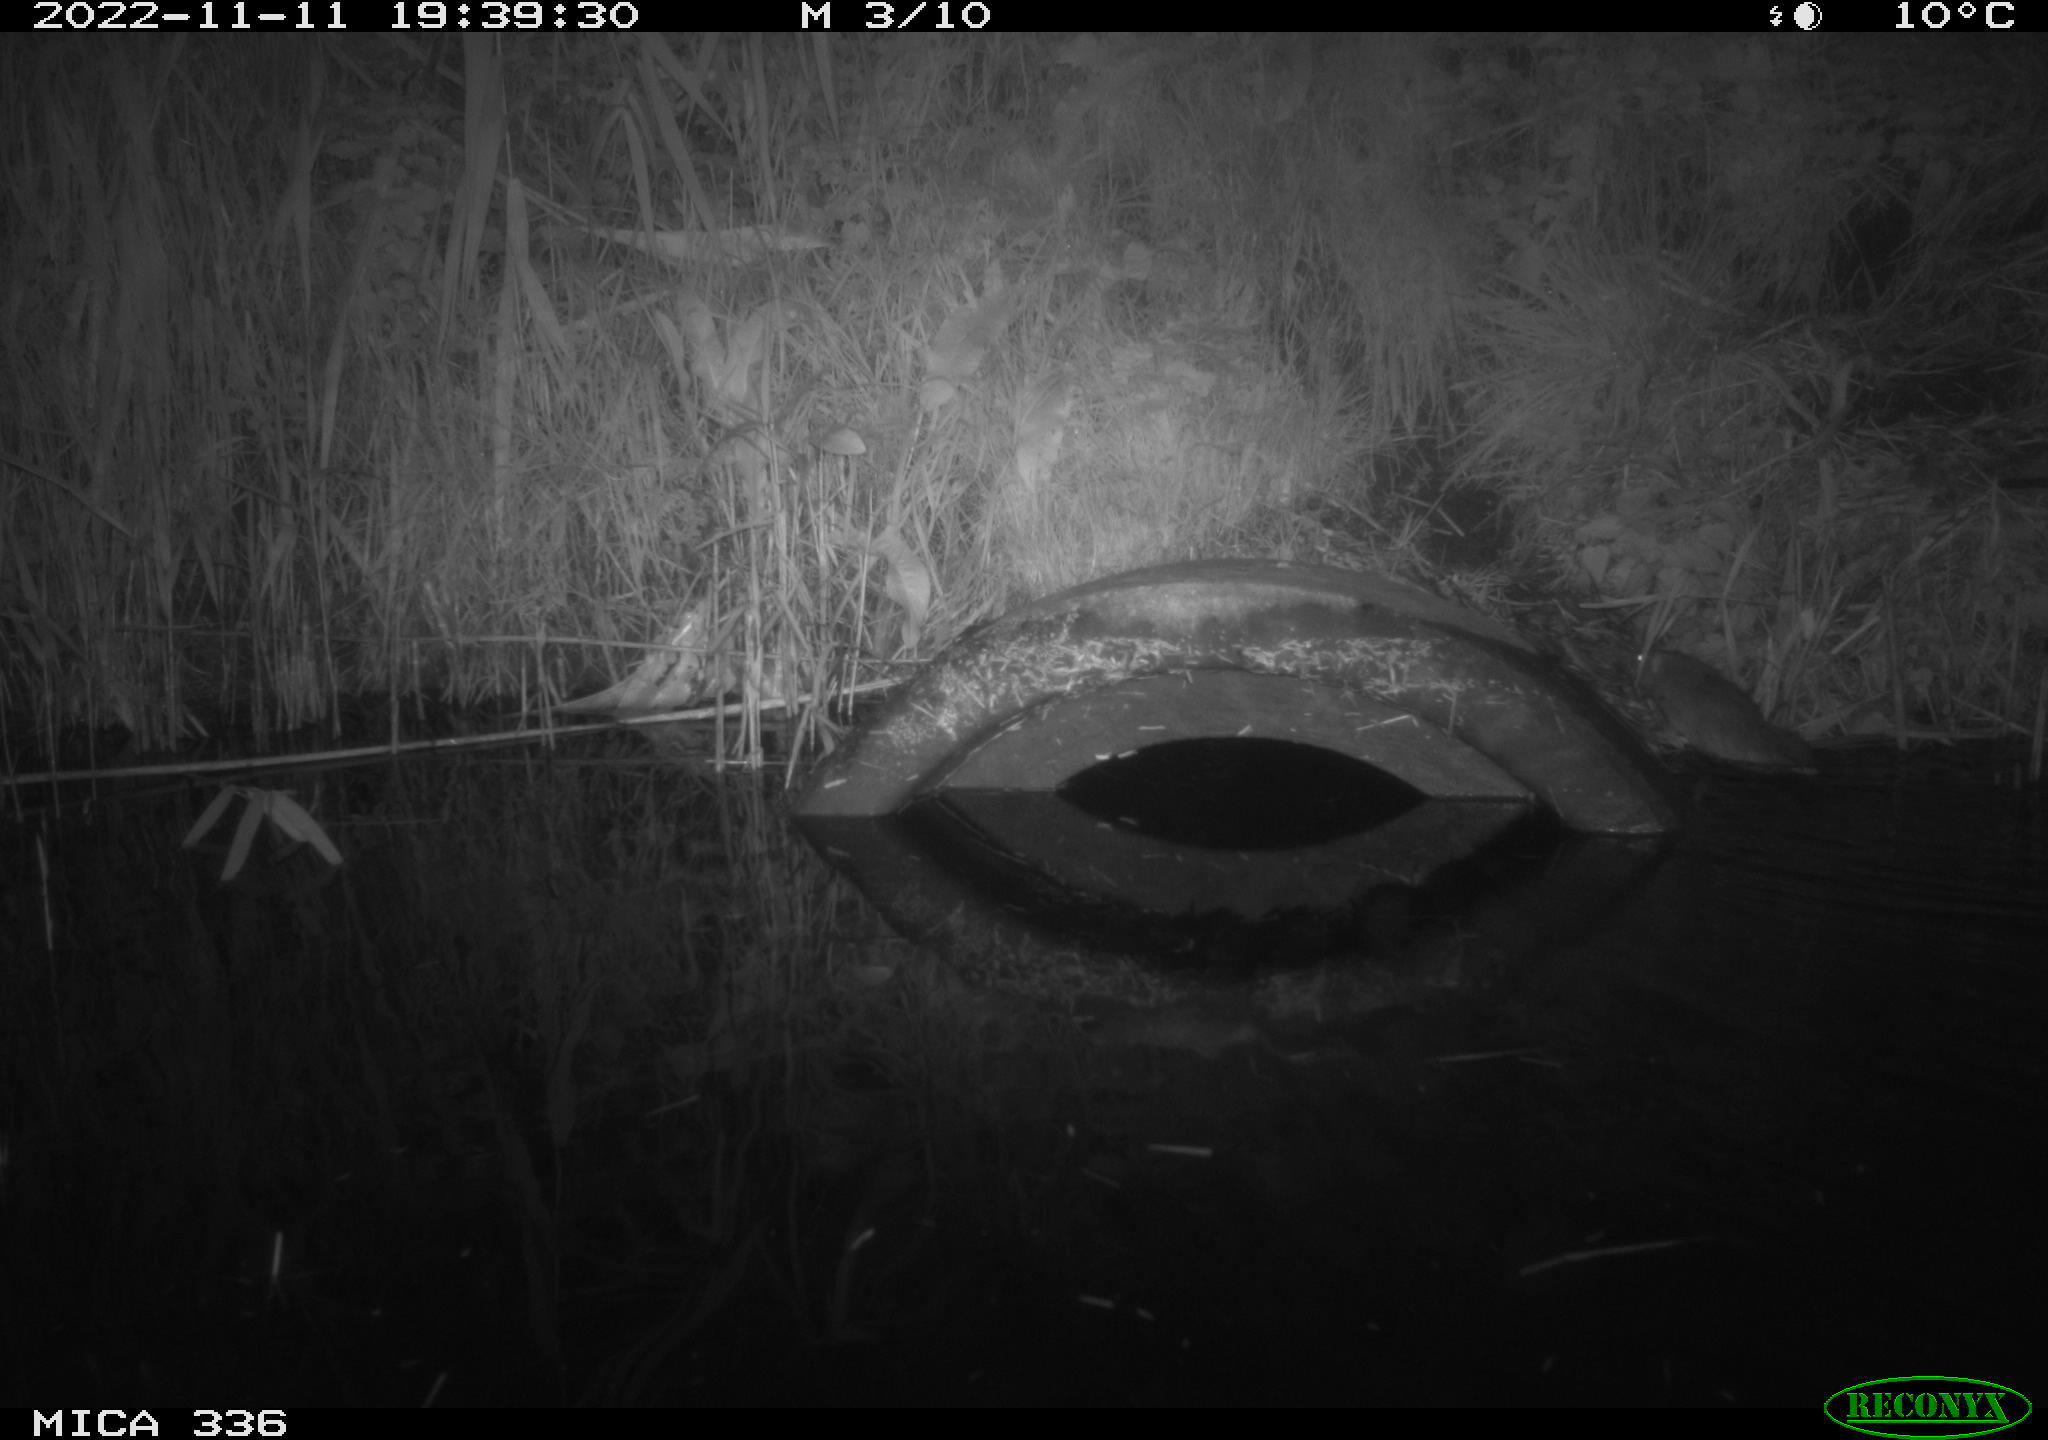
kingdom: Animalia
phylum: Chordata
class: Mammalia
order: Rodentia
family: Muridae
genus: Rattus
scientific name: Rattus norvegicus
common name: Brown rat
